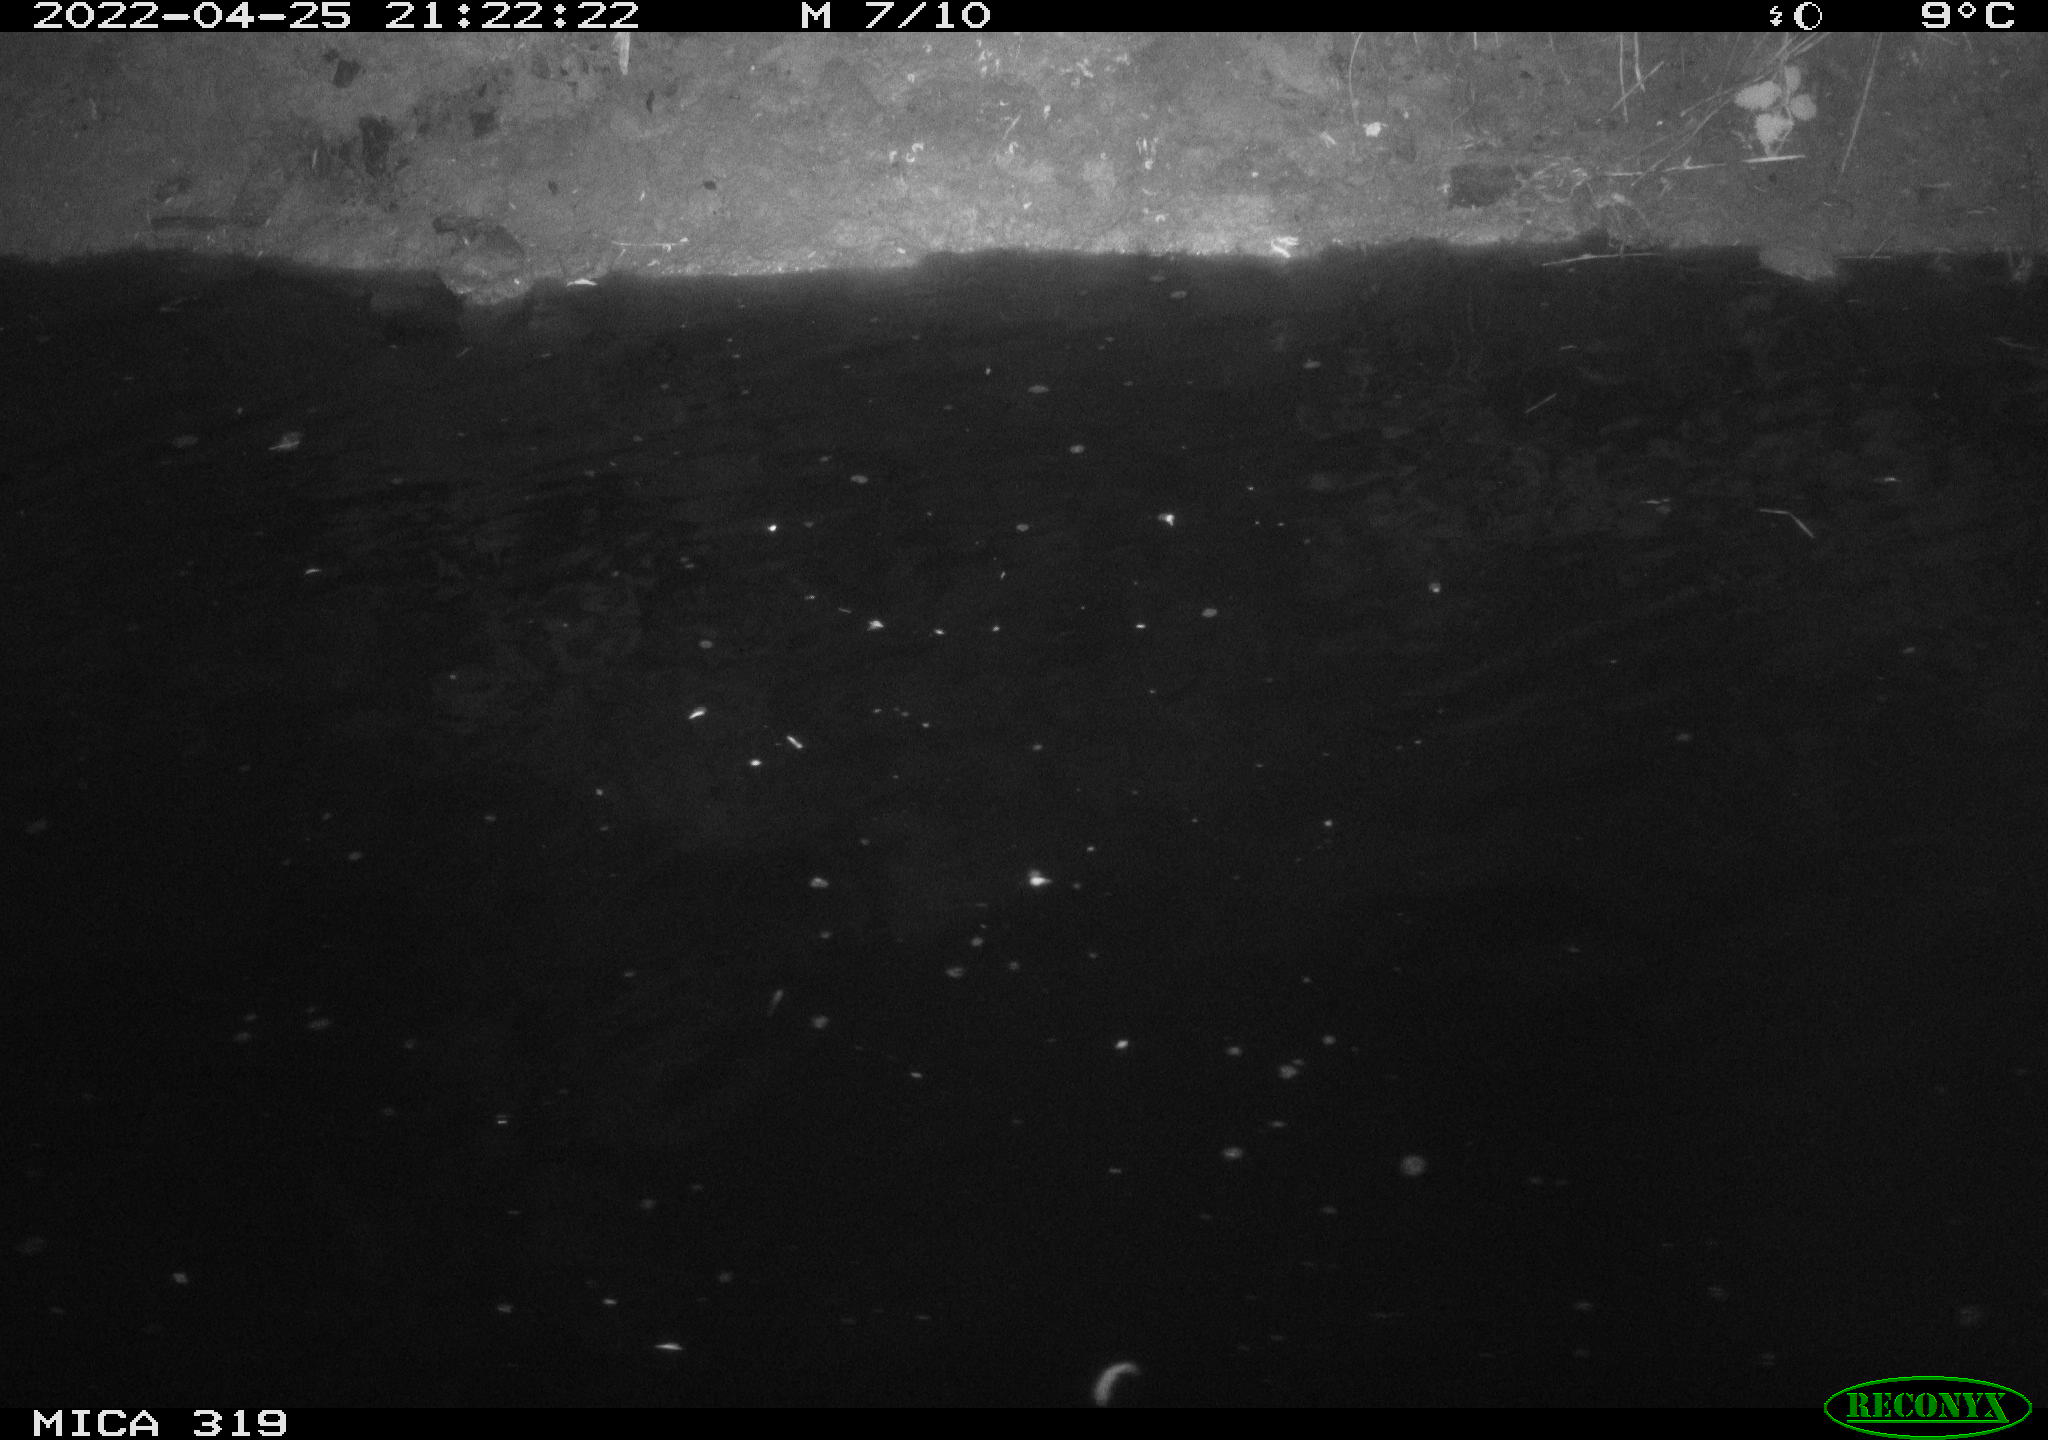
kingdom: Animalia
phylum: Chordata
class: Aves
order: Anseriformes
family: Anatidae
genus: Anas
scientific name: Anas platyrhynchos
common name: Mallard
